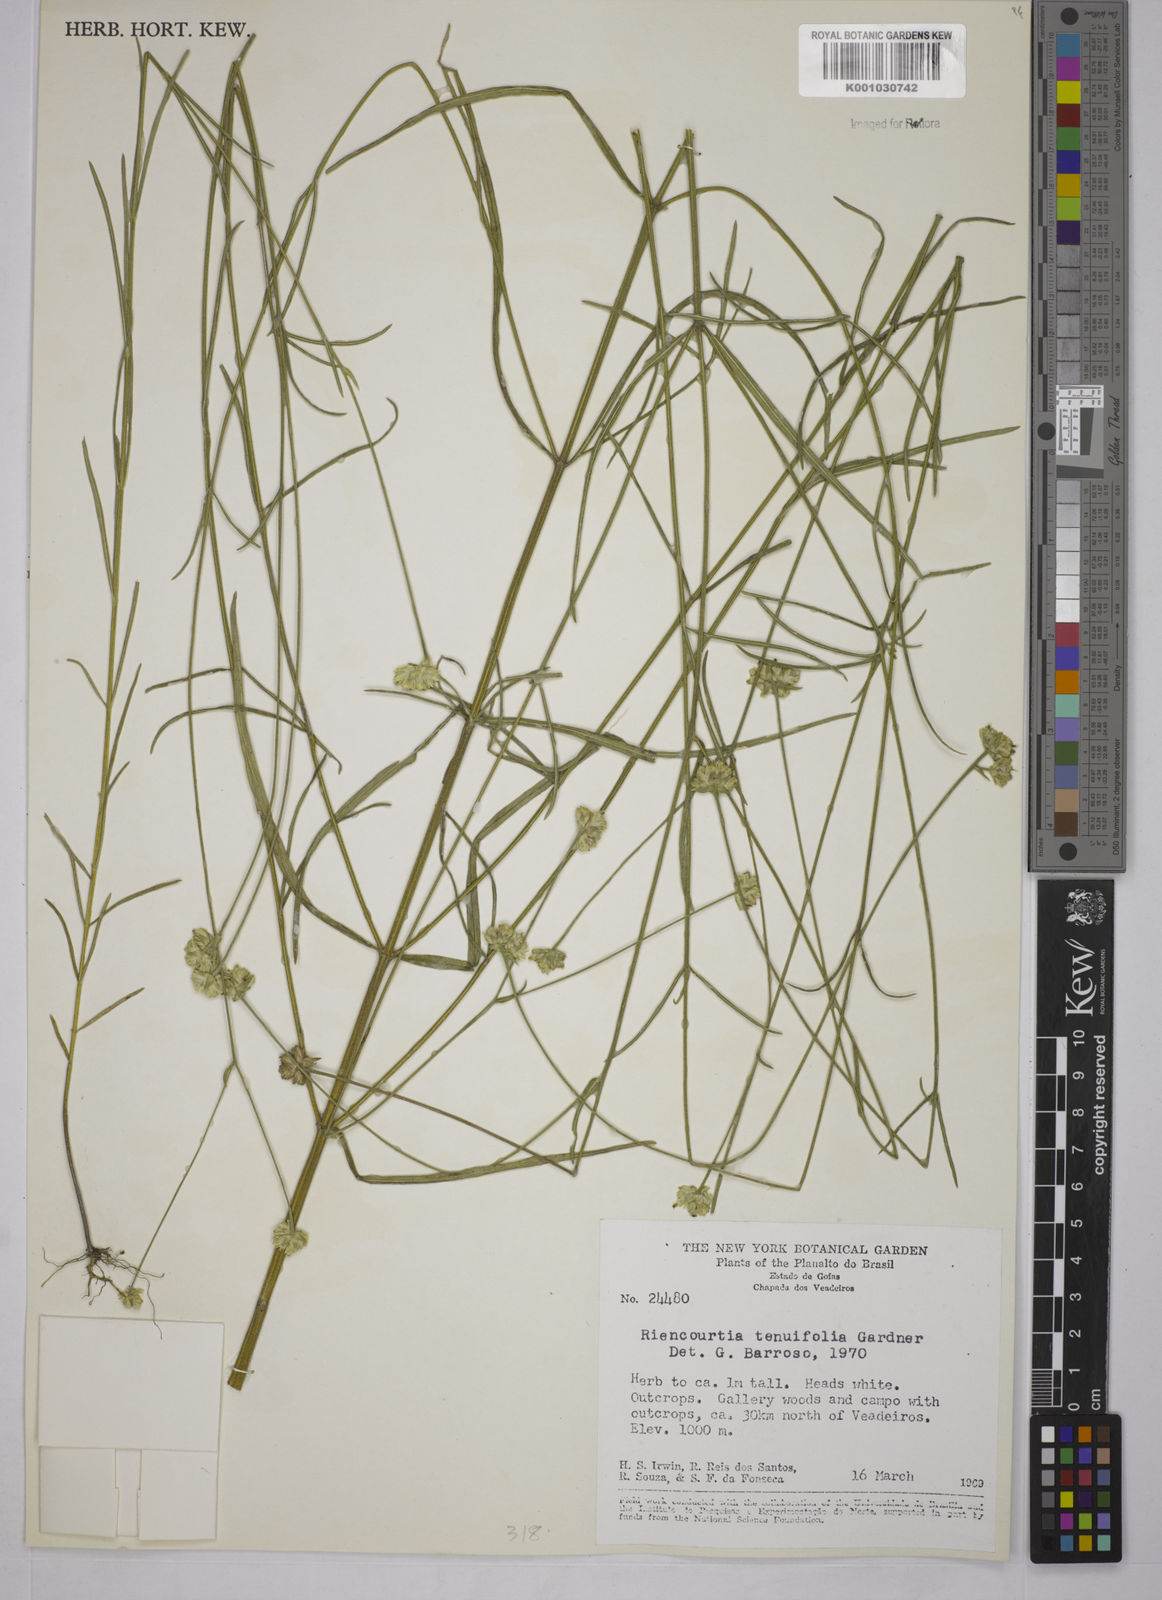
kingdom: Plantae
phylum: Tracheophyta
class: Magnoliopsida
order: Asterales
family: Asteraceae
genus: Riencourtia
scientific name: Riencourtia tenuifolia
